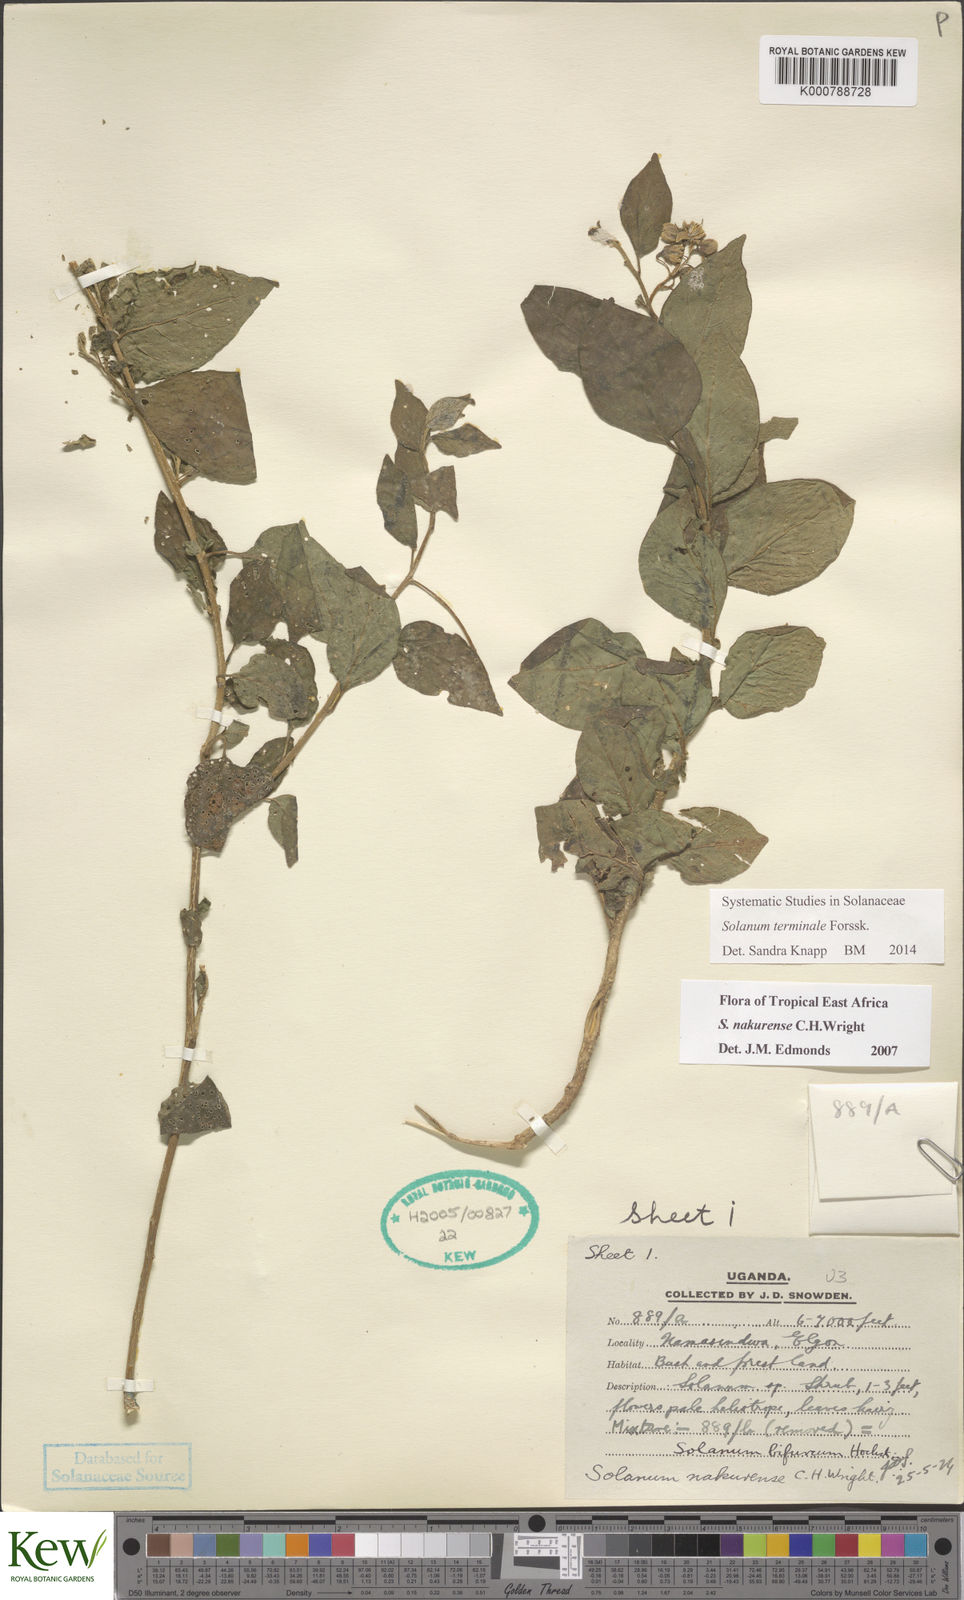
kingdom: Plantae
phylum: Tracheophyta
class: Magnoliopsida
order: Solanales
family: Solanaceae
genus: Solanum
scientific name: Solanum terminale
